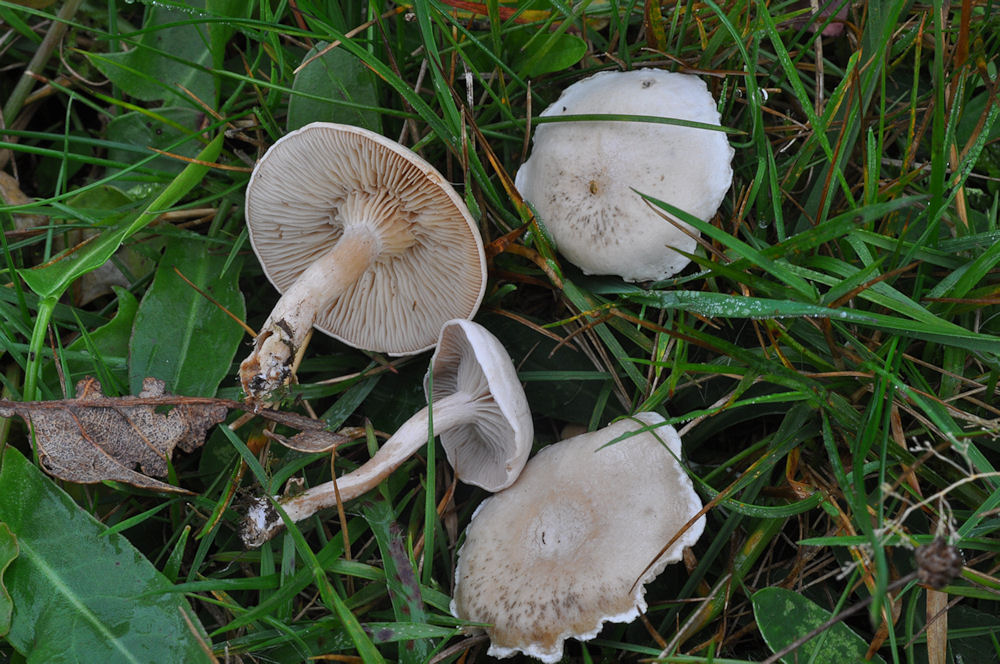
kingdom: Fungi
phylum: Basidiomycota
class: Agaricomycetes
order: Agaricales
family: Tricholomataceae
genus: Clitocybe
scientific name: Clitocybe rivulosa
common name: eng-tragthat
